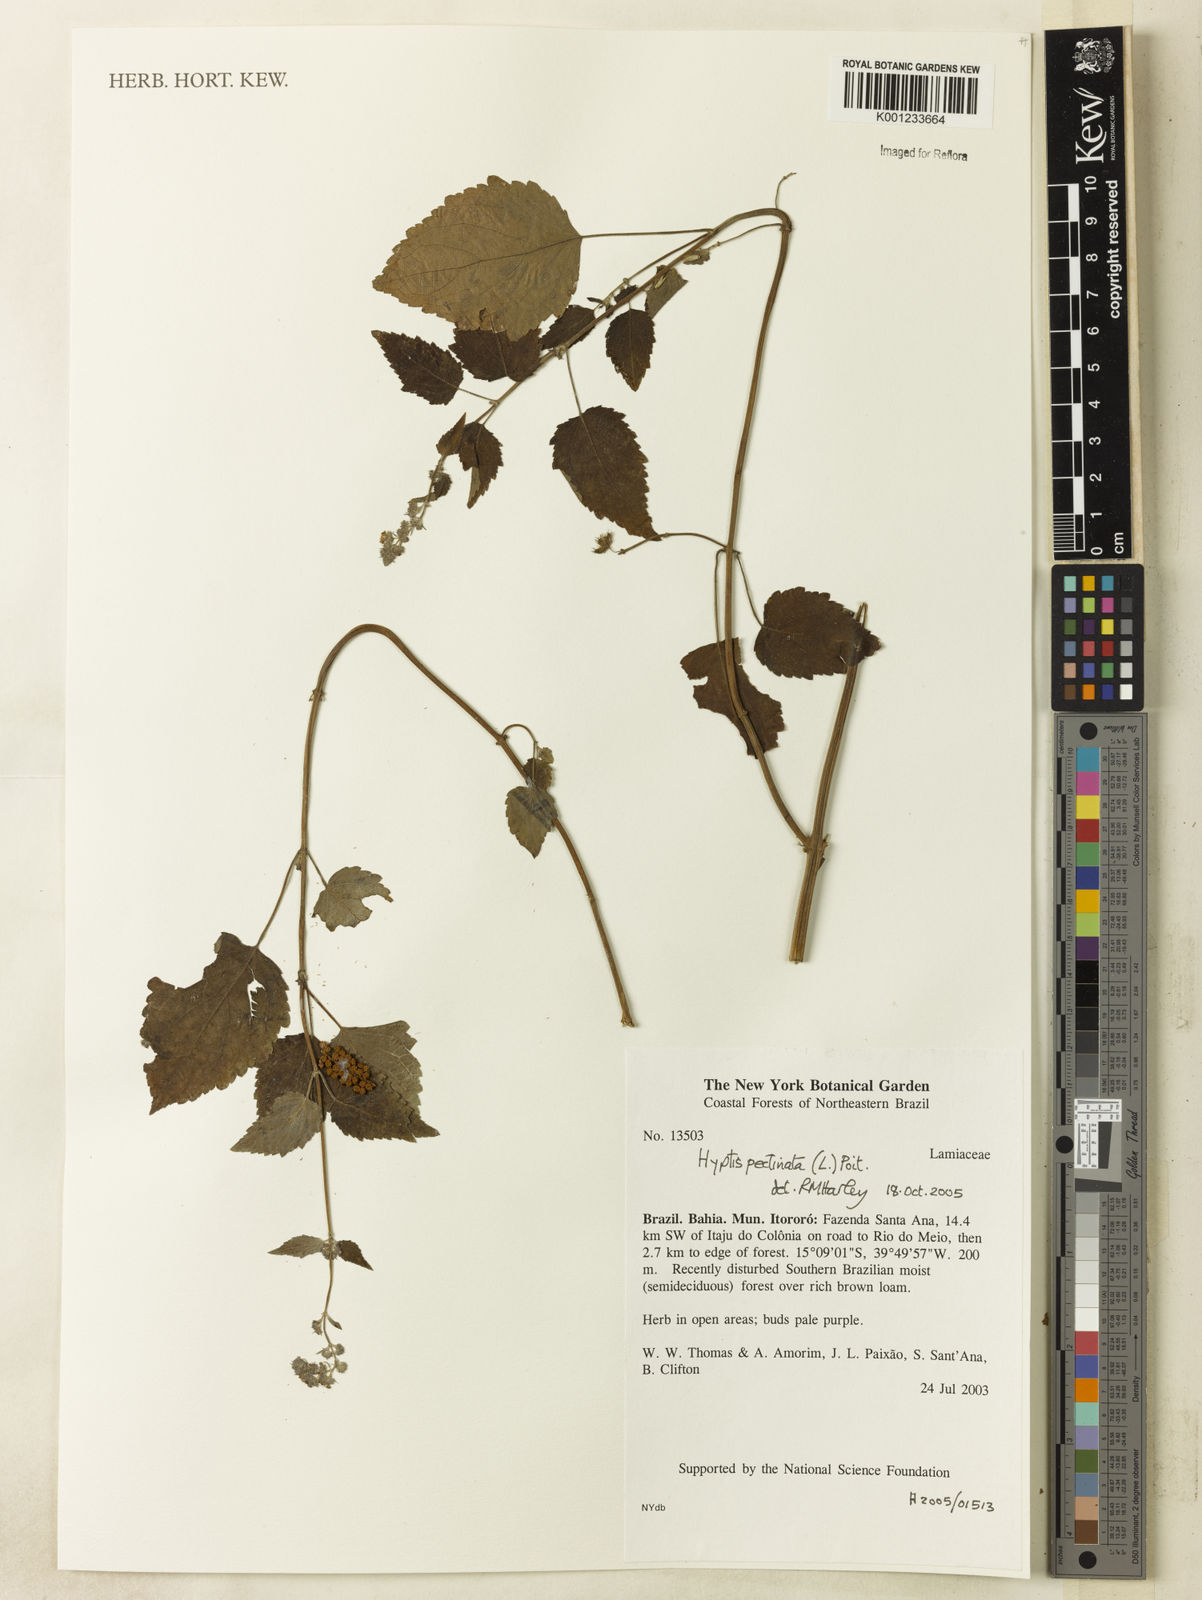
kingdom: Plantae
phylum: Tracheophyta
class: Magnoliopsida
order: Lamiales
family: Lamiaceae
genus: Mesosphaerum
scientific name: Mesosphaerum pectinatum
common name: Comb hyptis
